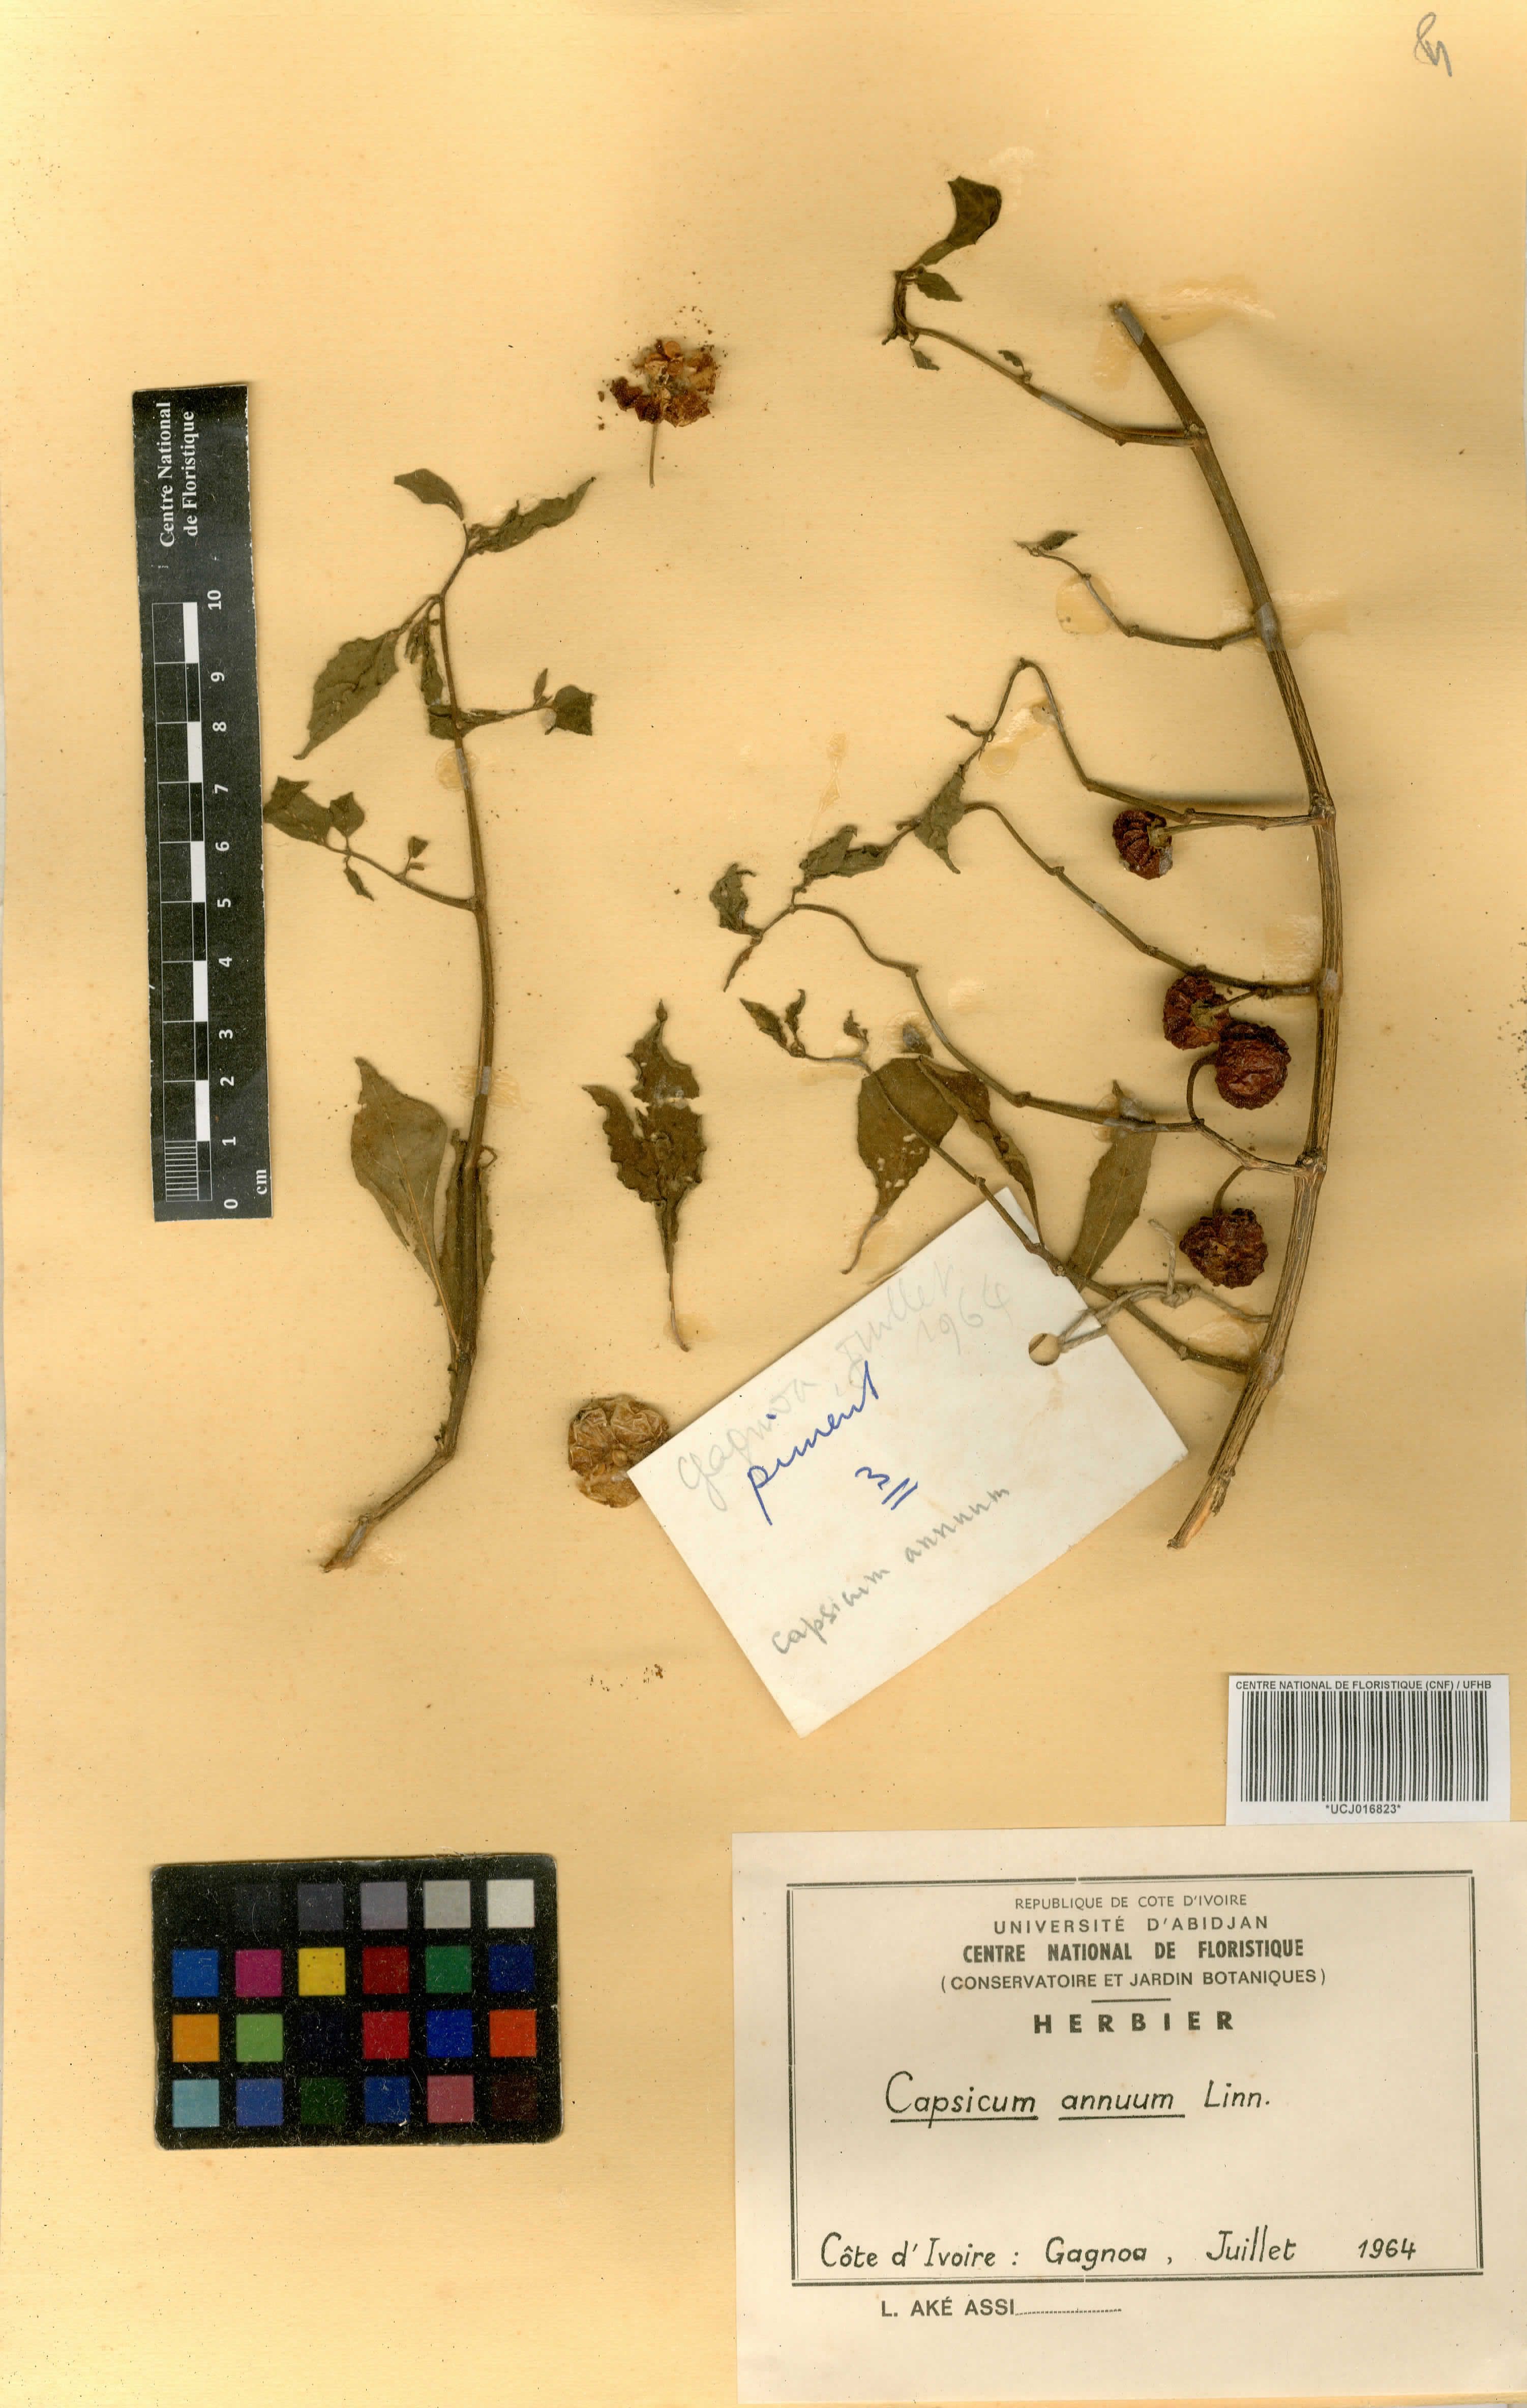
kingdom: Plantae
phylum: Tracheophyta
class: Magnoliopsida
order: Solanales
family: Solanaceae
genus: Capsicum
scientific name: Capsicum annuum
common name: Sweet pepper
